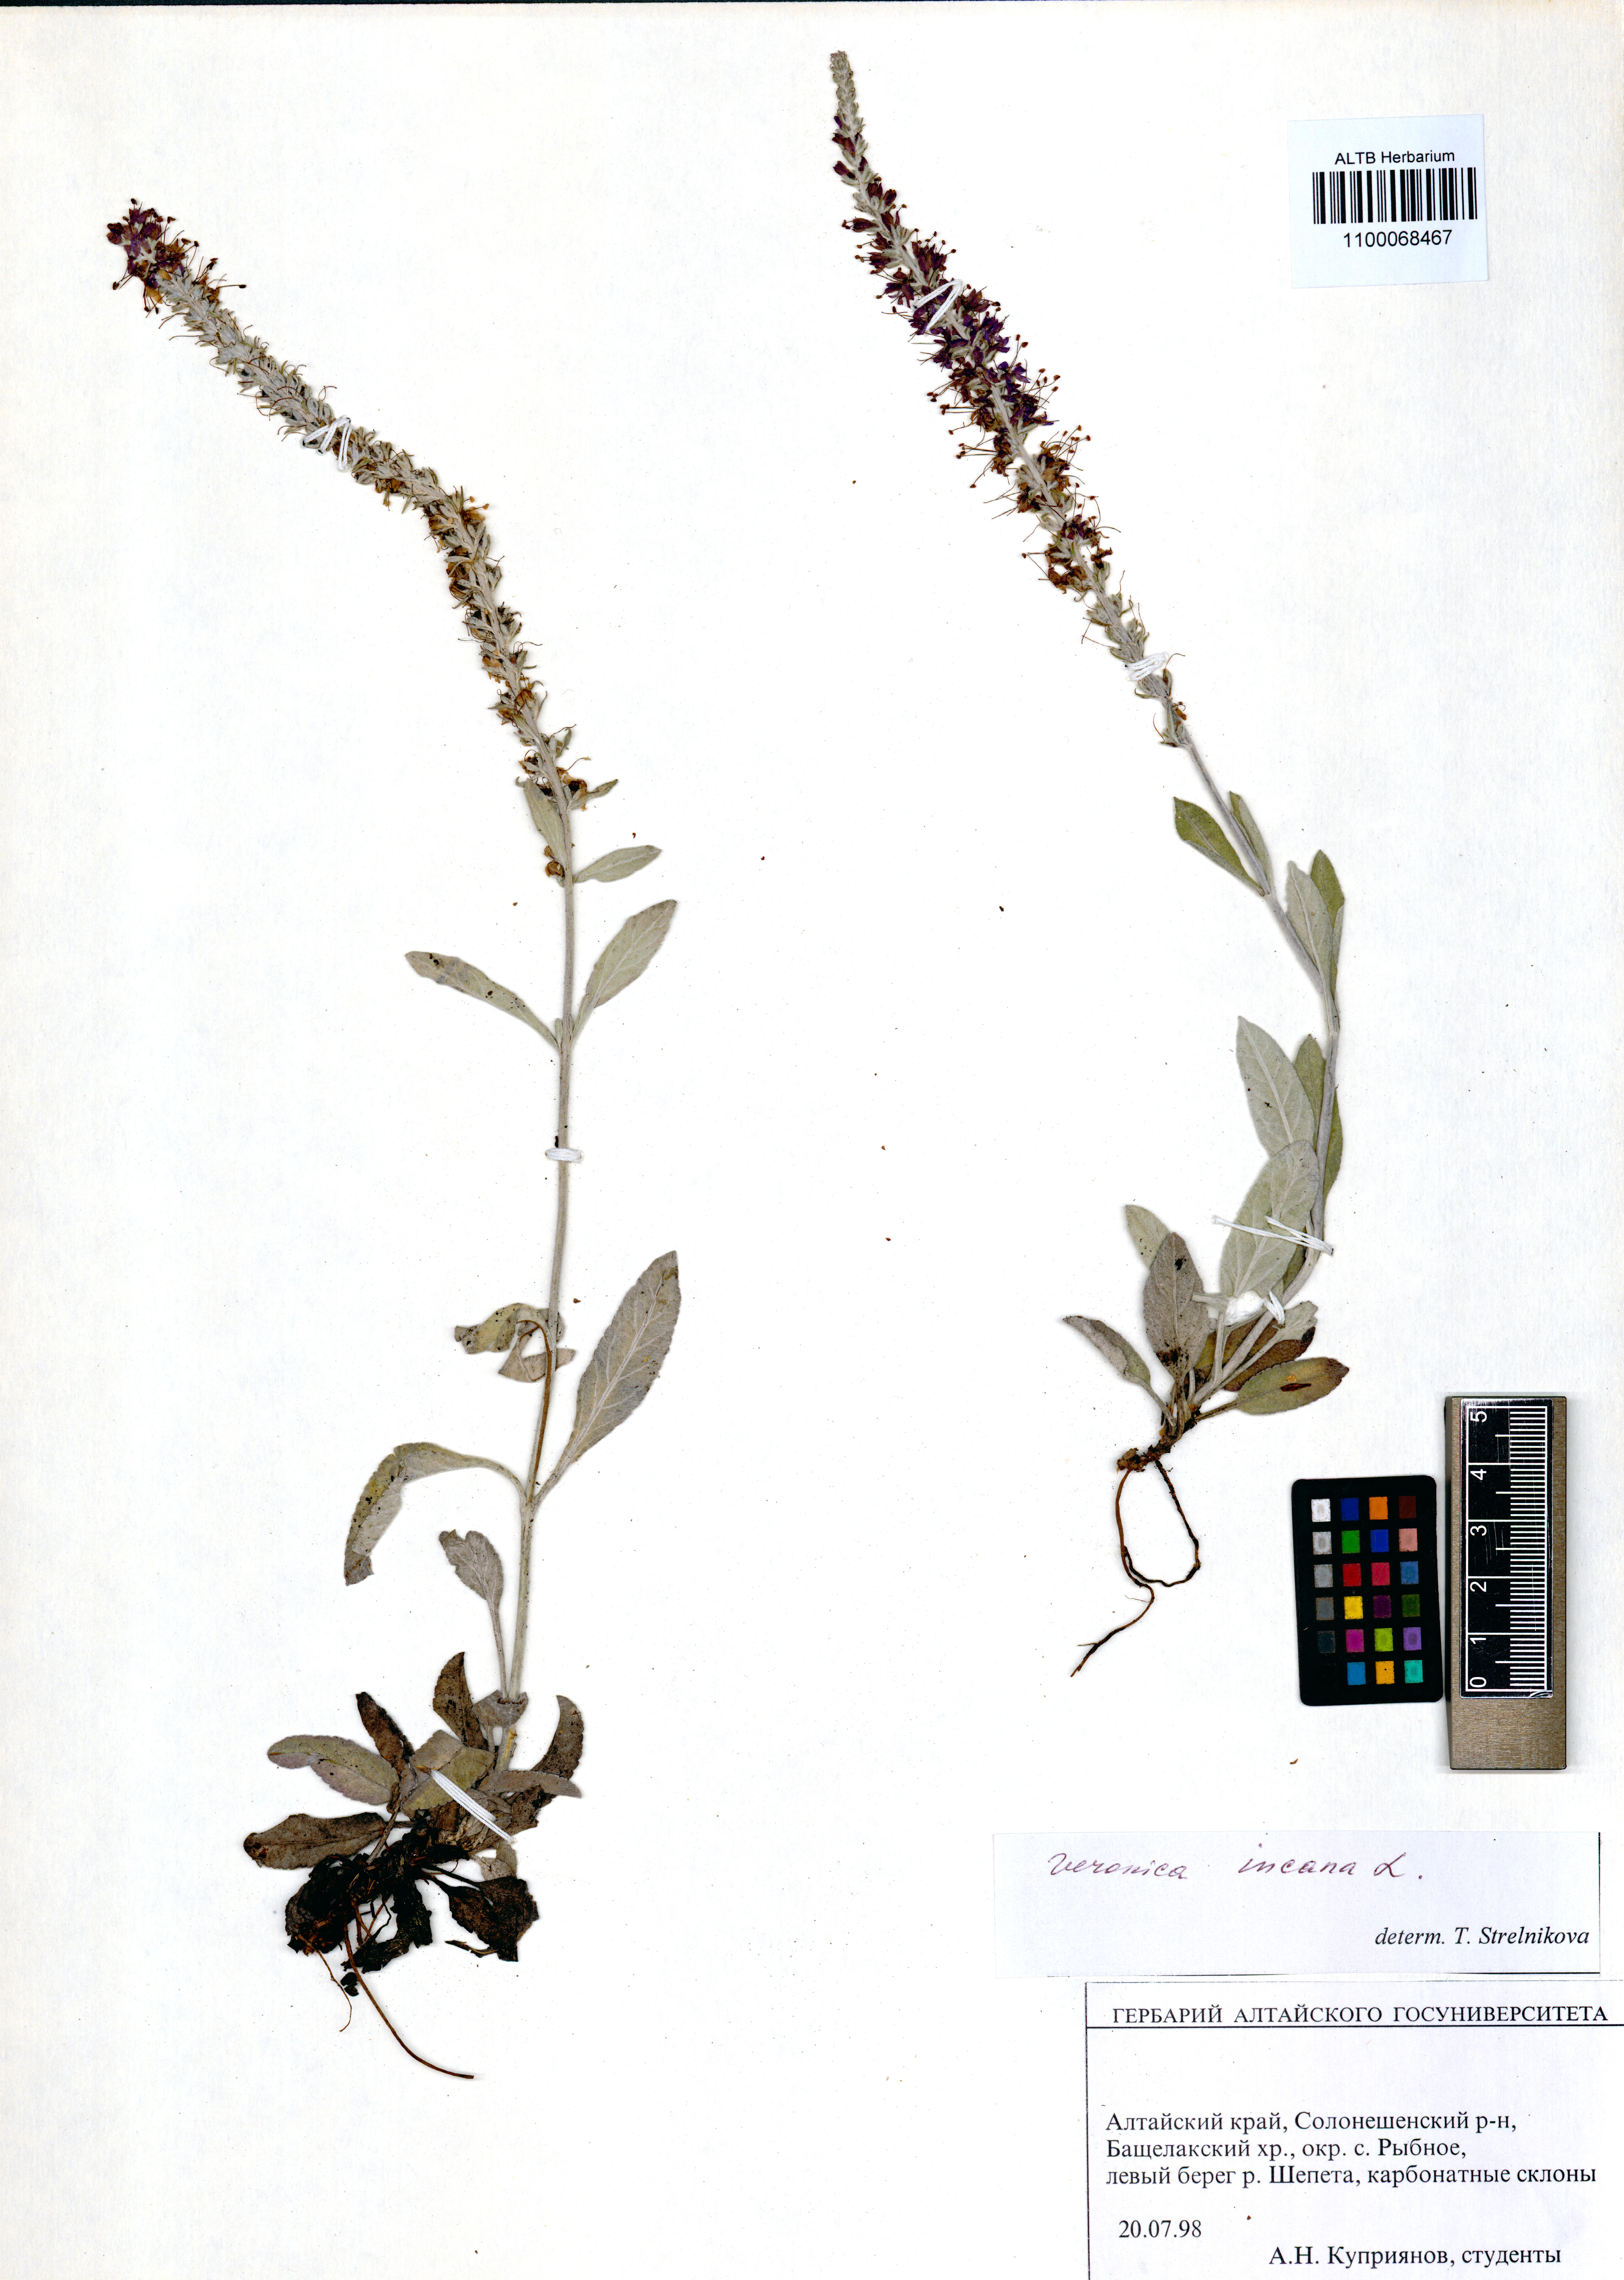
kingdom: Plantae
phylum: Tracheophyta
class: Magnoliopsida
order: Lamiales
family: Plantaginaceae
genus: Veronica
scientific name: Veronica incana
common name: Silver speedwell
